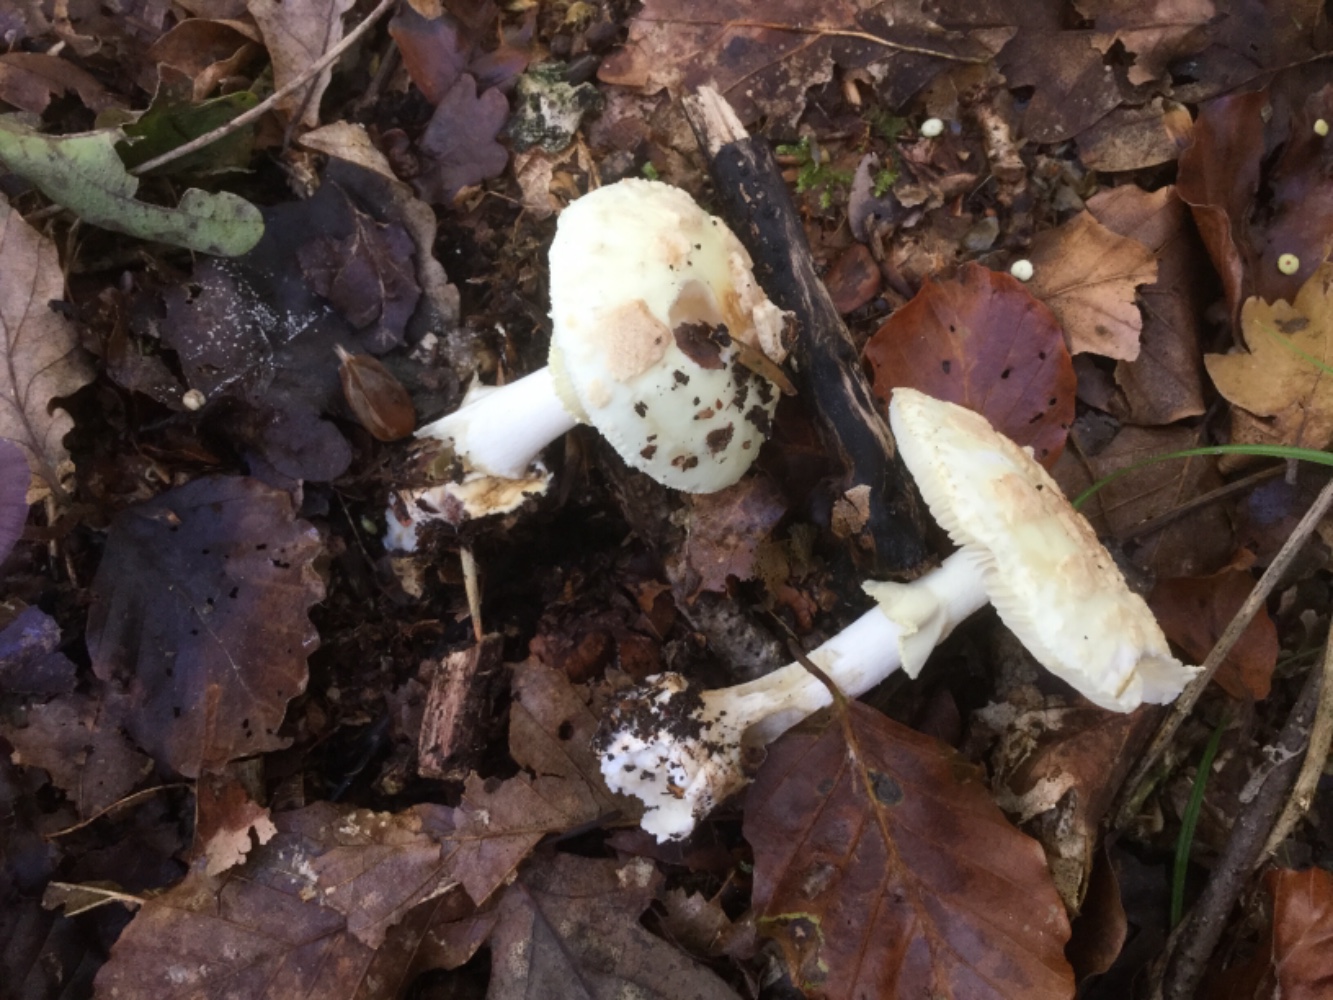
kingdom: Fungi
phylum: Basidiomycota
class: Agaricomycetes
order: Agaricales
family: Amanitaceae
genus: Amanita
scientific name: Amanita citrina
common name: kugleknoldet fluesvamp
